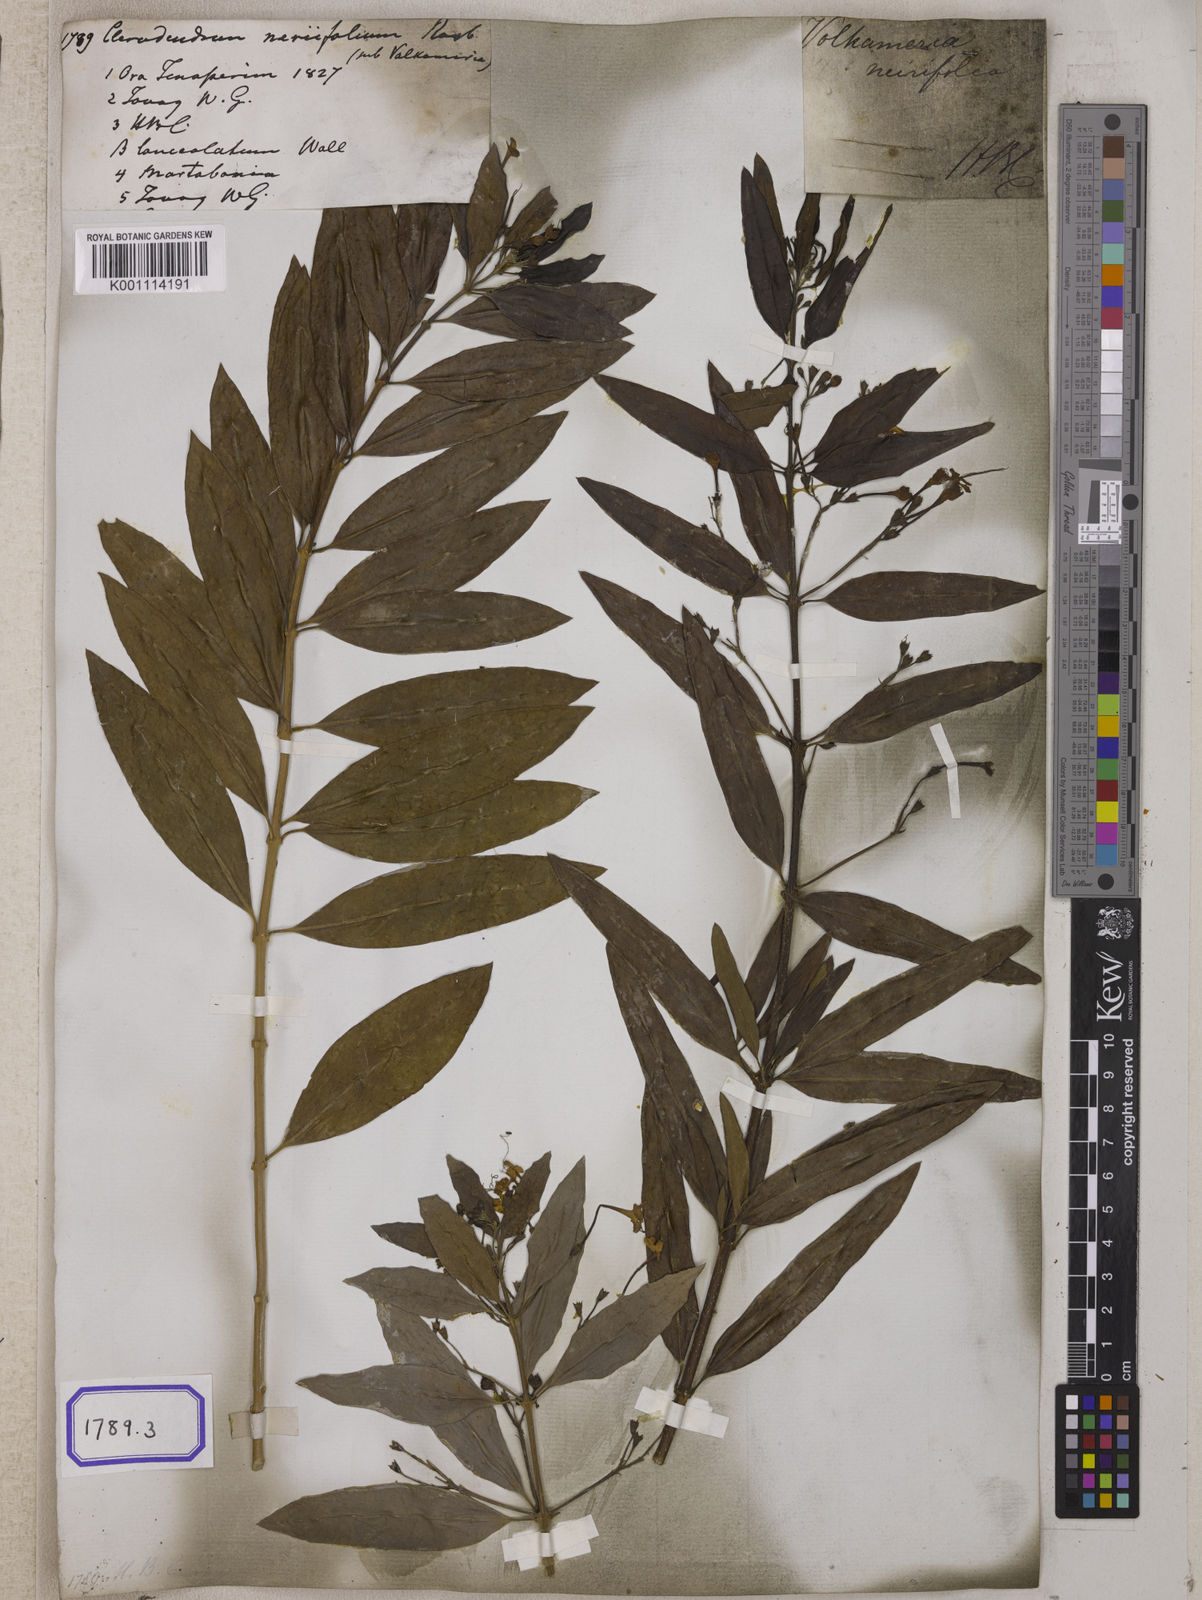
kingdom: Plantae
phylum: Tracheophyta
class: Magnoliopsida
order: Lamiales
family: Lamiaceae
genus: Clerodendrum
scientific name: Clerodendrum
